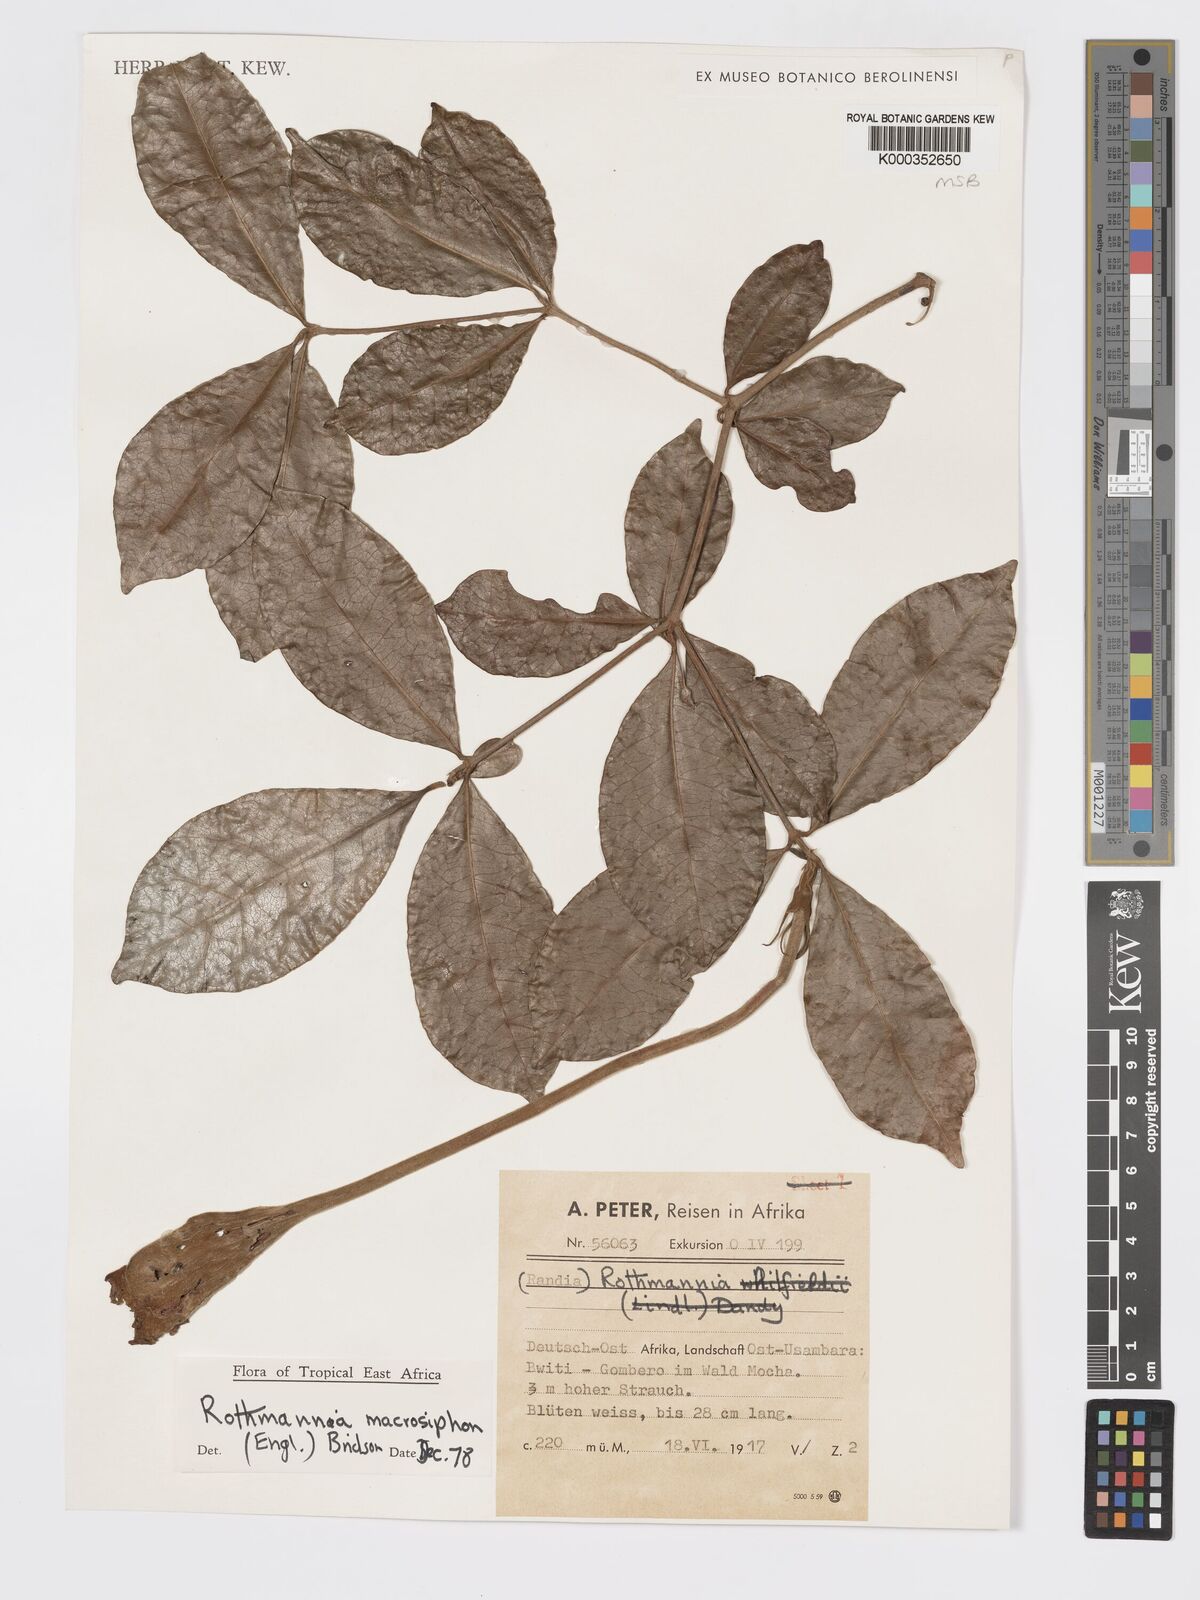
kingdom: Plantae
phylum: Tracheophyta
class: Magnoliopsida
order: Gentianales
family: Rubiaceae
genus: Rothmannia
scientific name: Rothmannia macrosiphon
